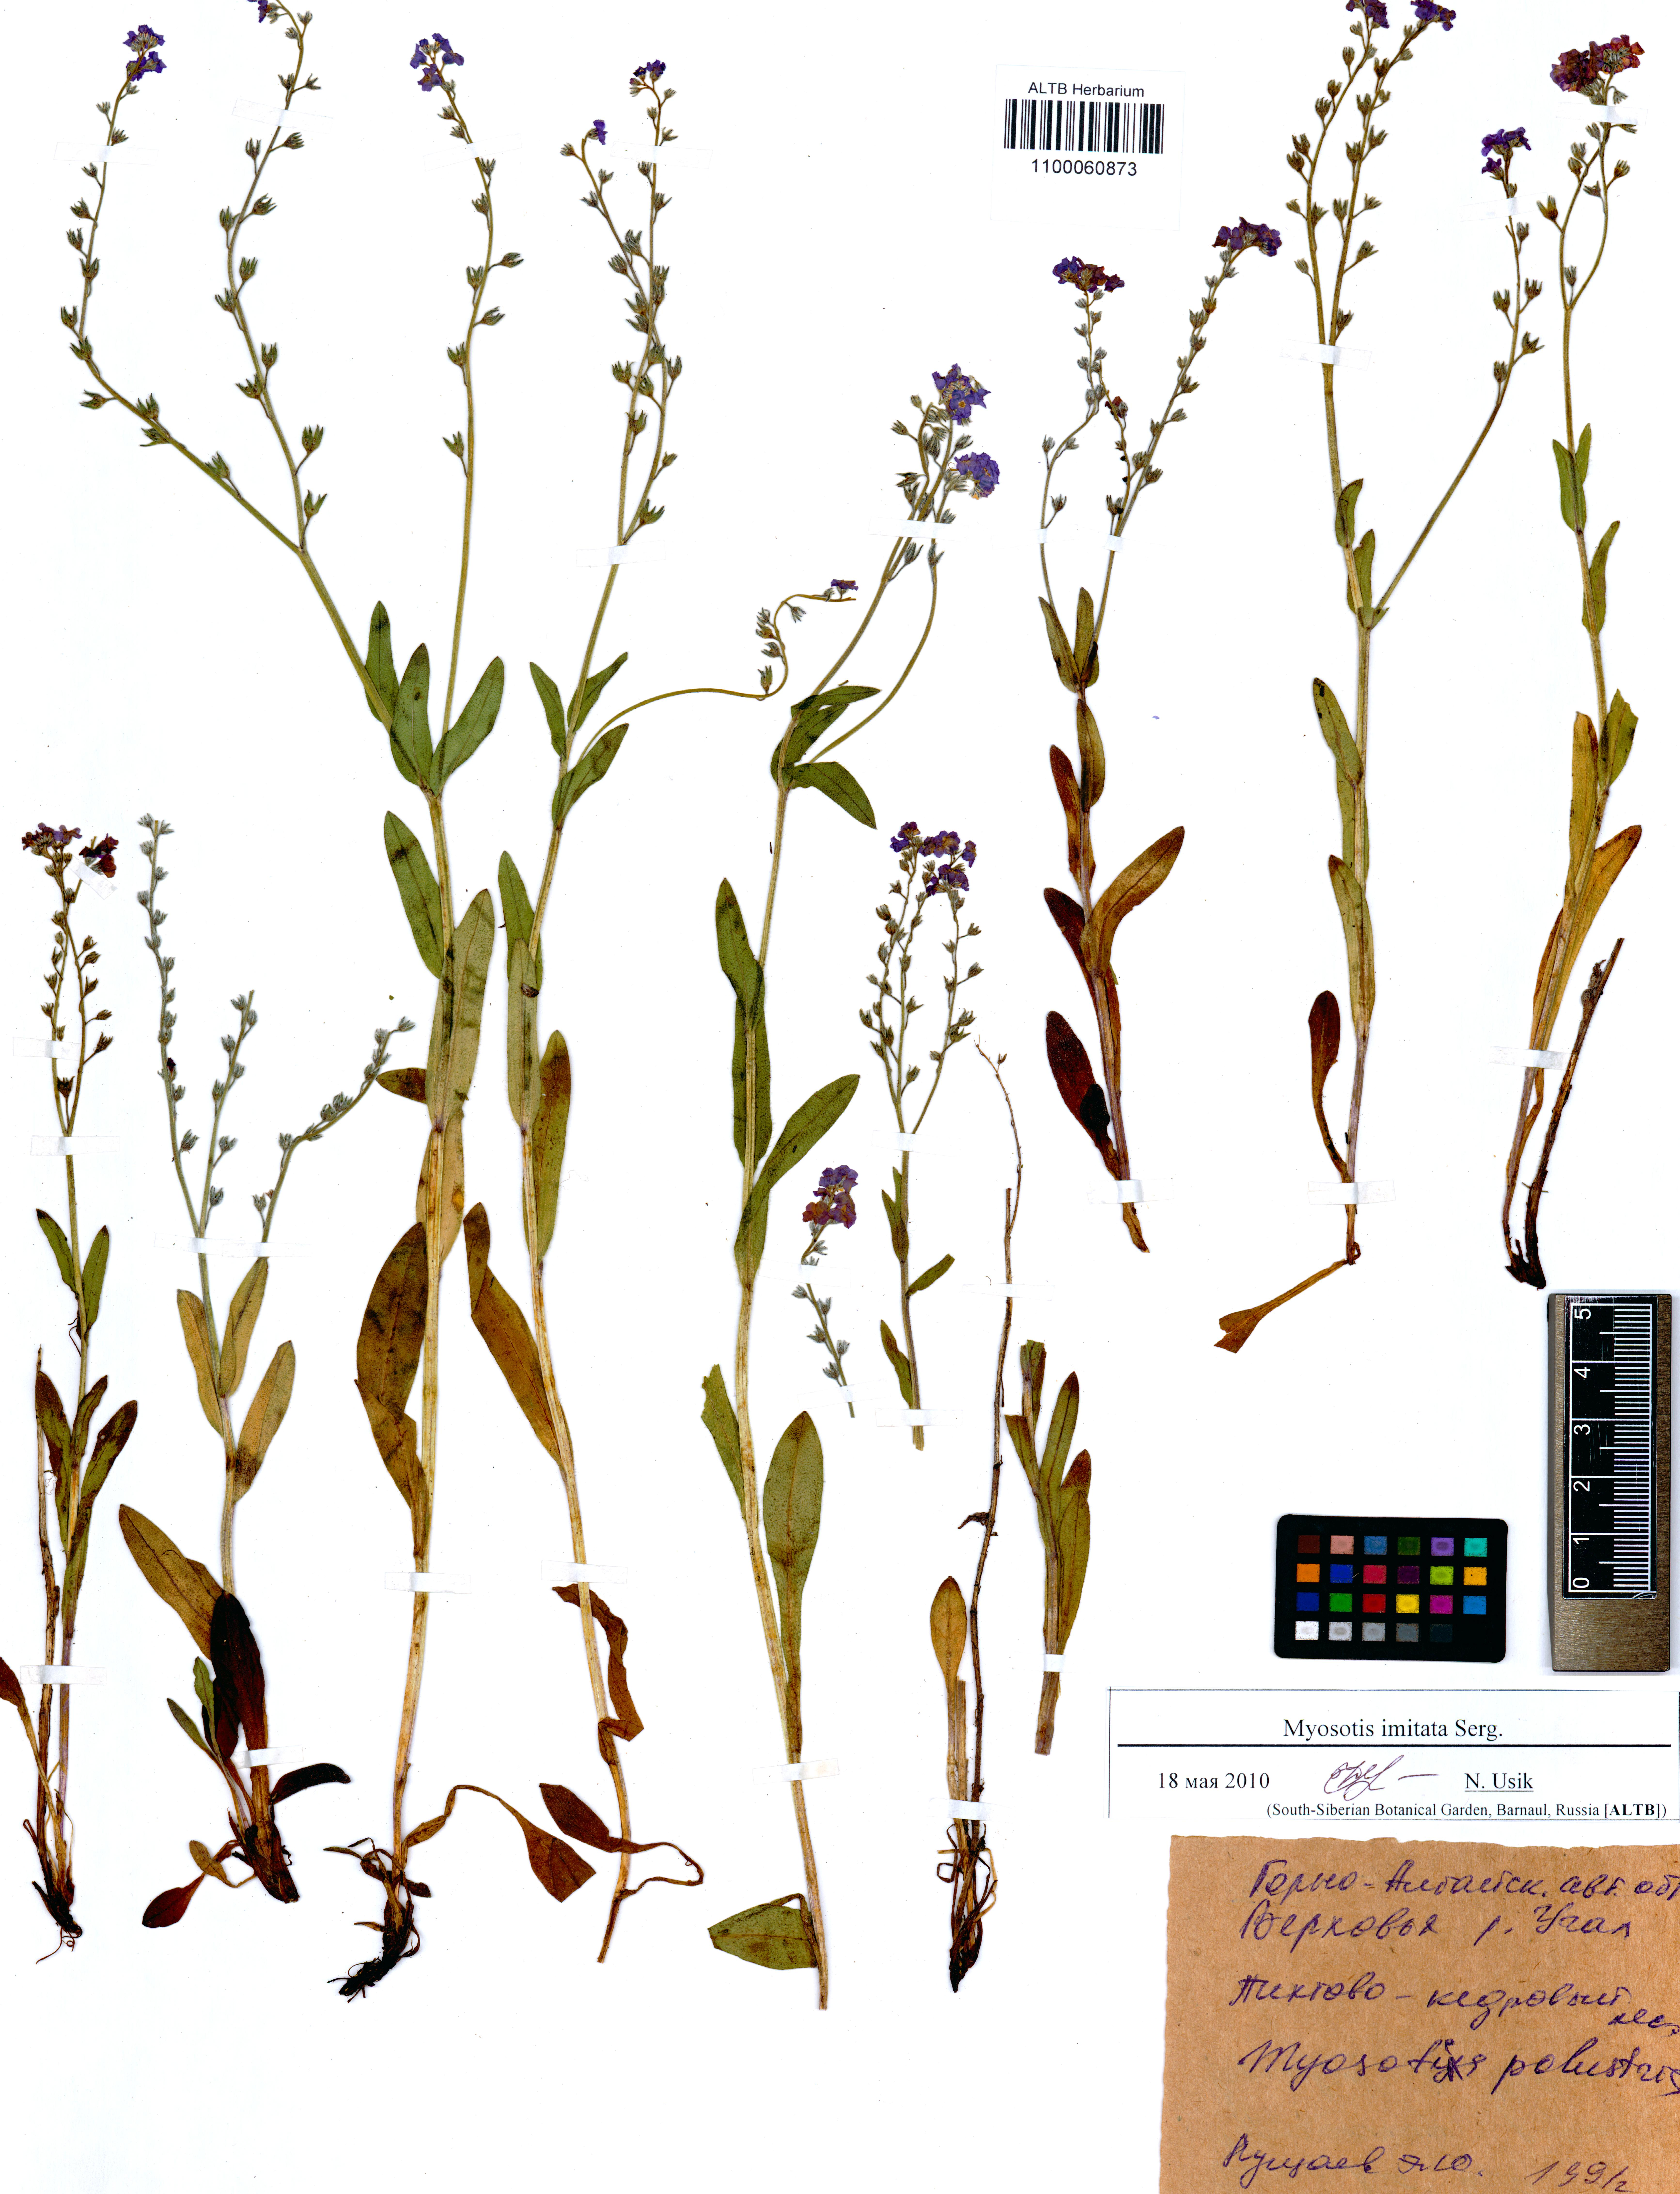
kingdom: Plantae
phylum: Tracheophyta
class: Magnoliopsida
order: Boraginales
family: Boraginaceae
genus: Myosotis
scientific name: Myosotis imitata
